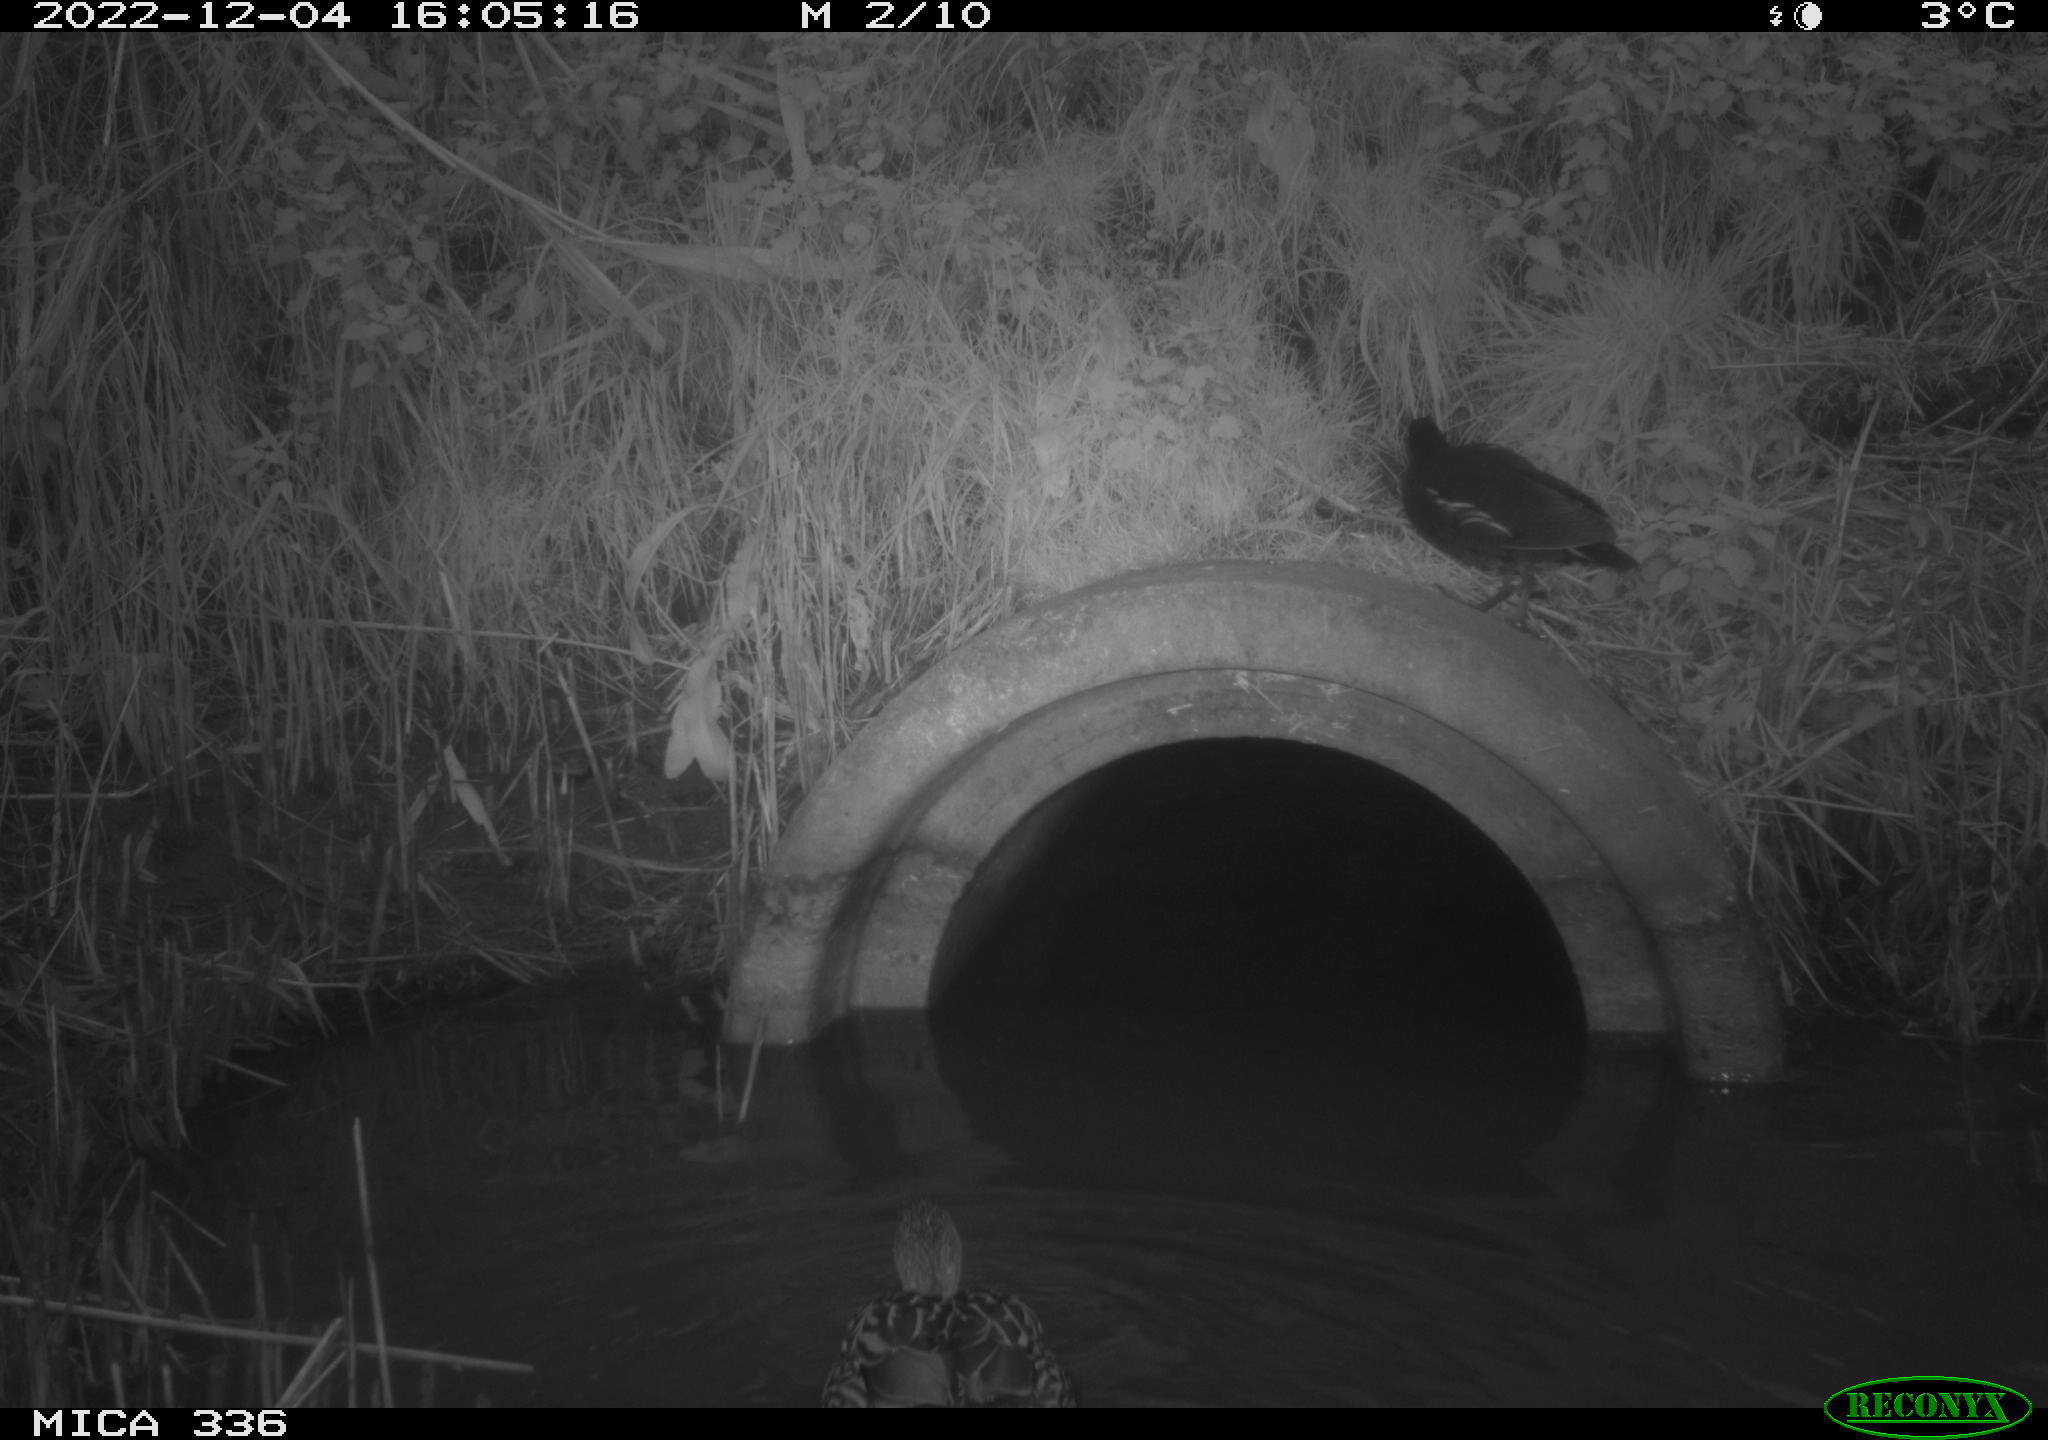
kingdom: Animalia
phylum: Chordata
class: Aves
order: Anseriformes
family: Anatidae
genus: Anas
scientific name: Anas
